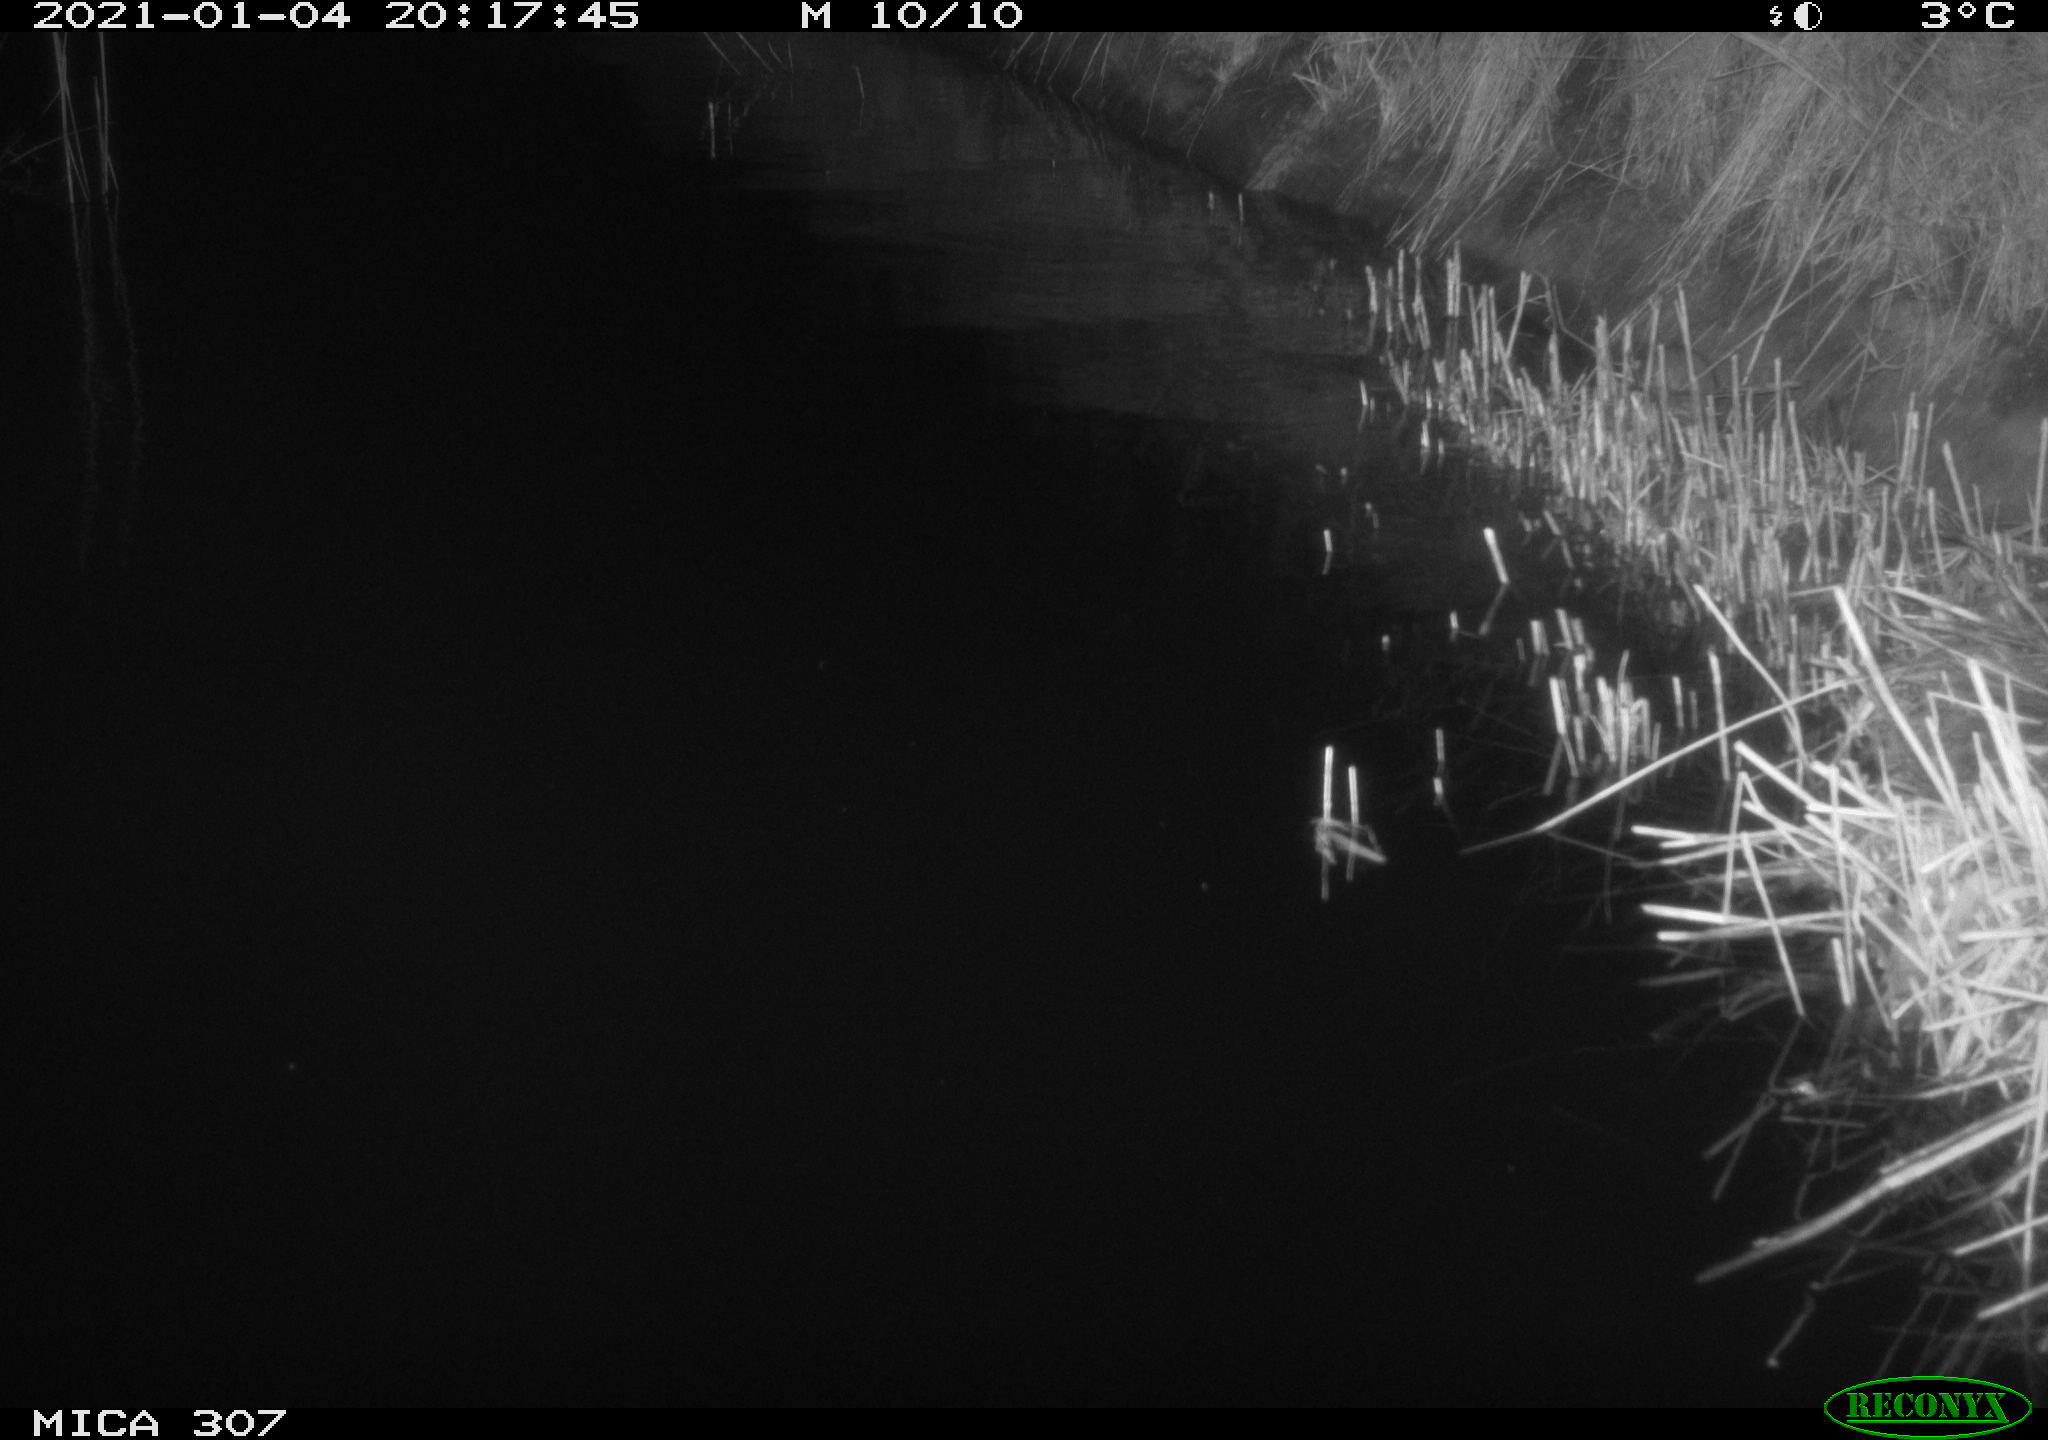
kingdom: Animalia
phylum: Chordata
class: Mammalia
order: Rodentia
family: Muridae
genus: Rattus
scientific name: Rattus norvegicus
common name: Brown rat
